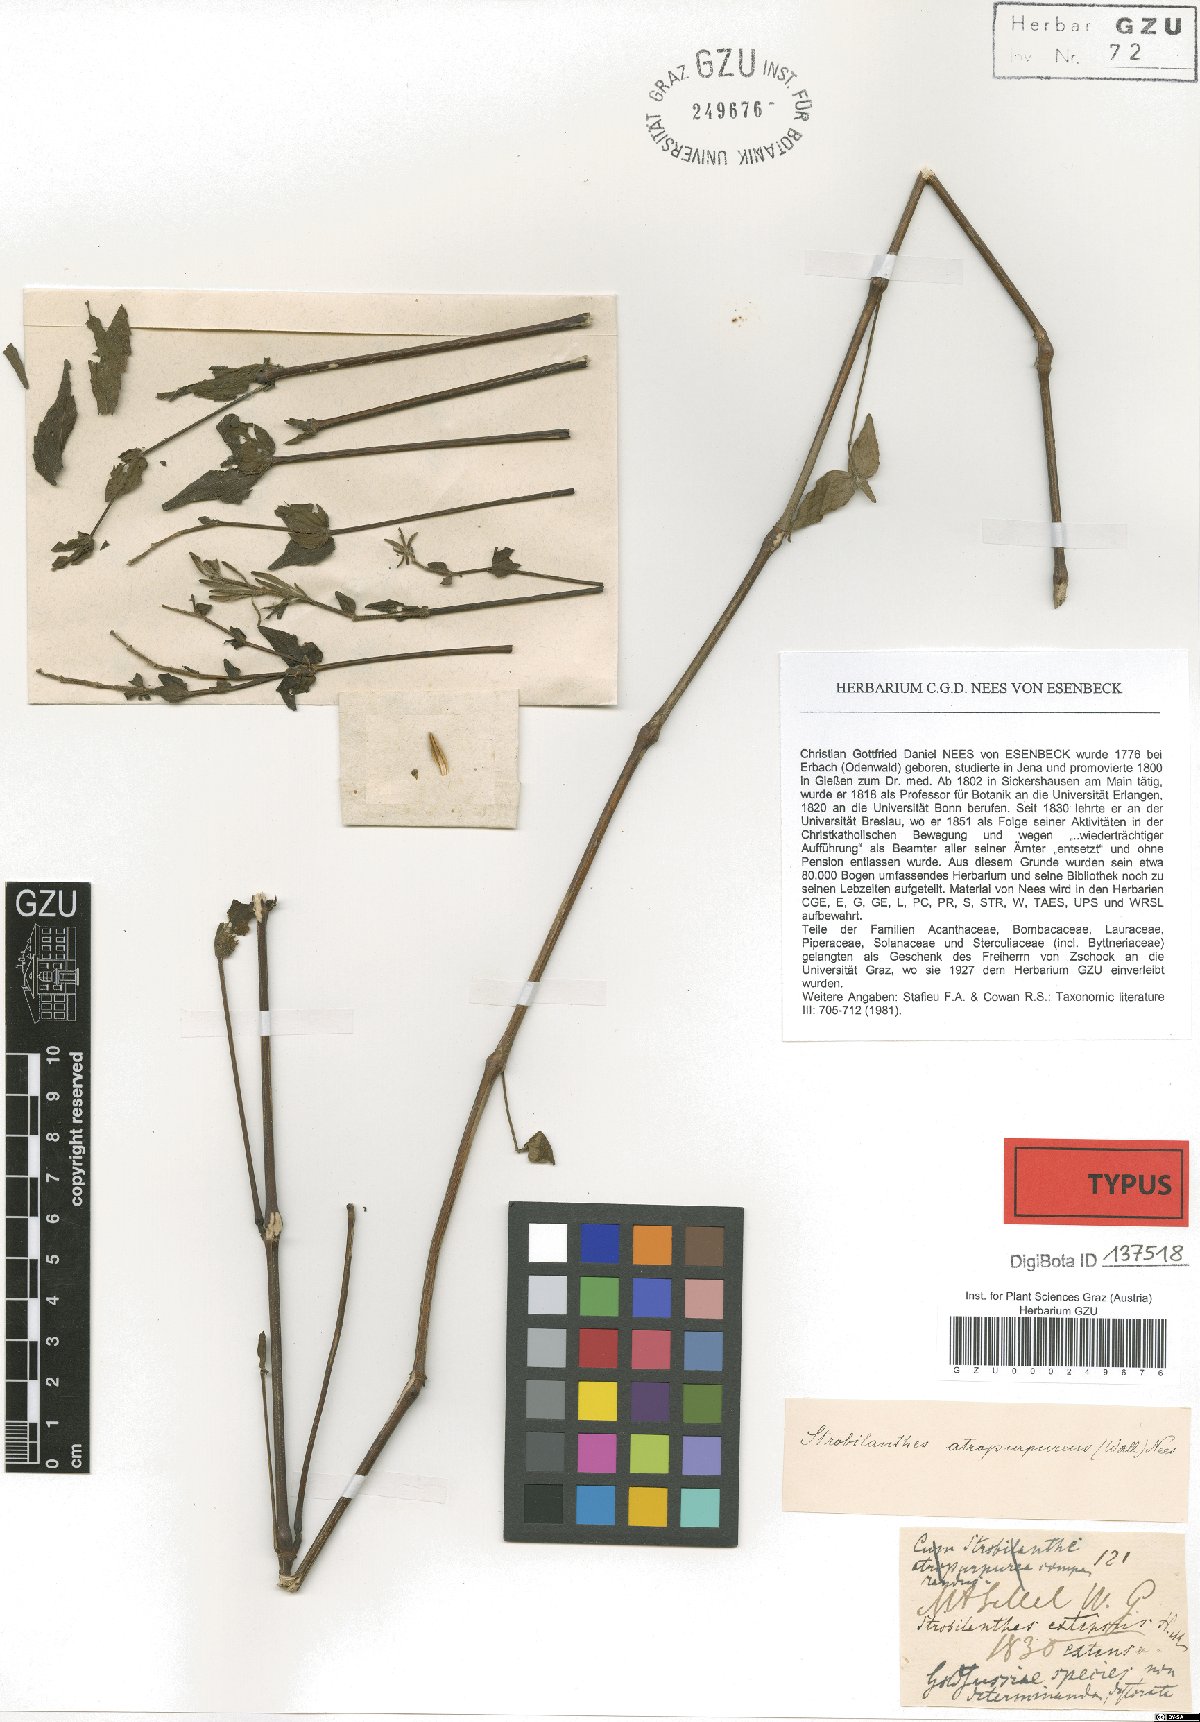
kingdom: Plantae
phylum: Tracheophyta
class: Magnoliopsida
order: Lamiales
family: Acanthaceae
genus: Strobilanthes
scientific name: Strobilanthes extensa
